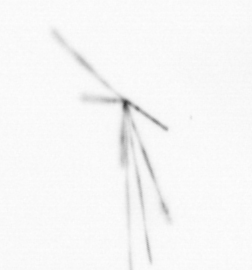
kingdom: Chromista
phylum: Ochrophyta
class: Bacillariophyceae
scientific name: Bacillariophyceae
